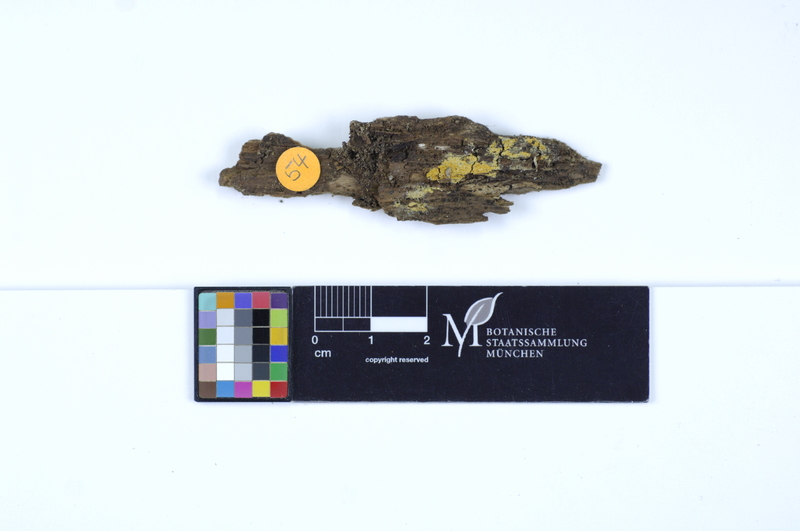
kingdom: Plantae
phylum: Tracheophyta
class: Magnoliopsida
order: Fagales
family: Fagaceae
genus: Fagus
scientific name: Fagus sylvatica
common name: Beech
